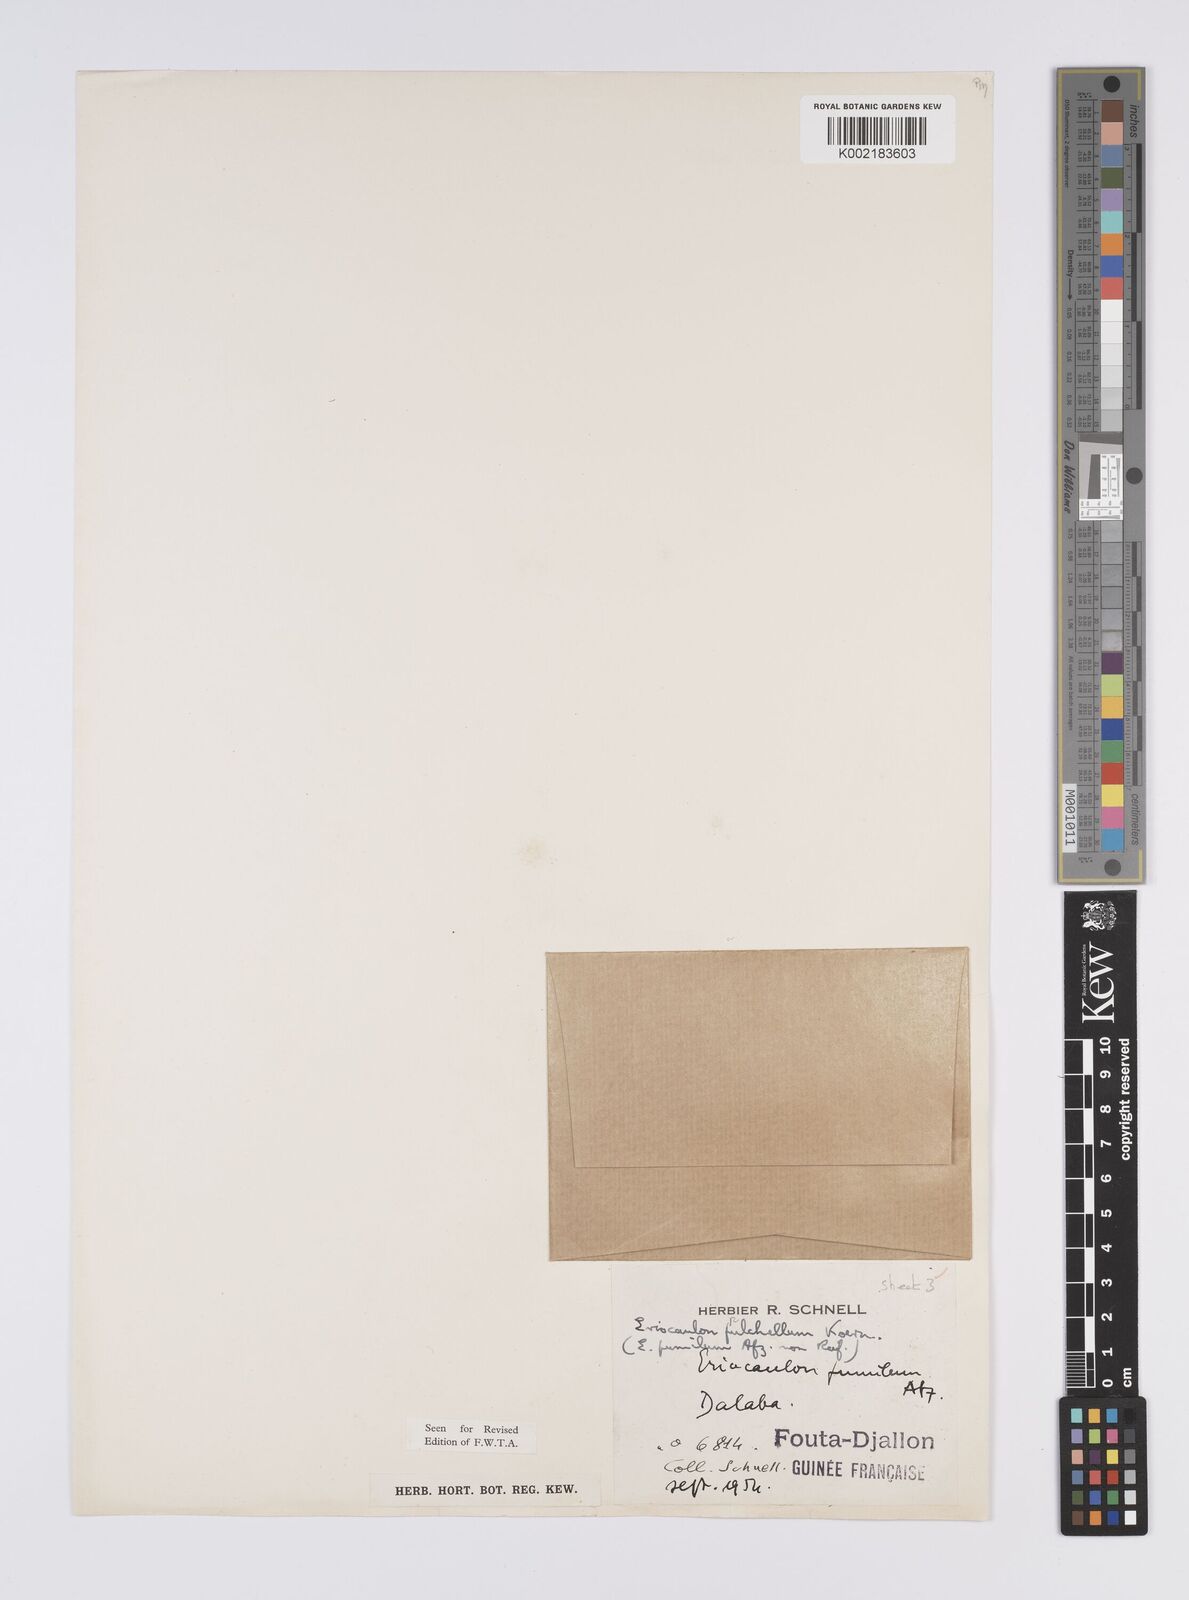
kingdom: Plantae
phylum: Tracheophyta
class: Liliopsida
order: Poales
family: Eriocaulaceae
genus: Eriocaulon
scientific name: Eriocaulon pulchellum
